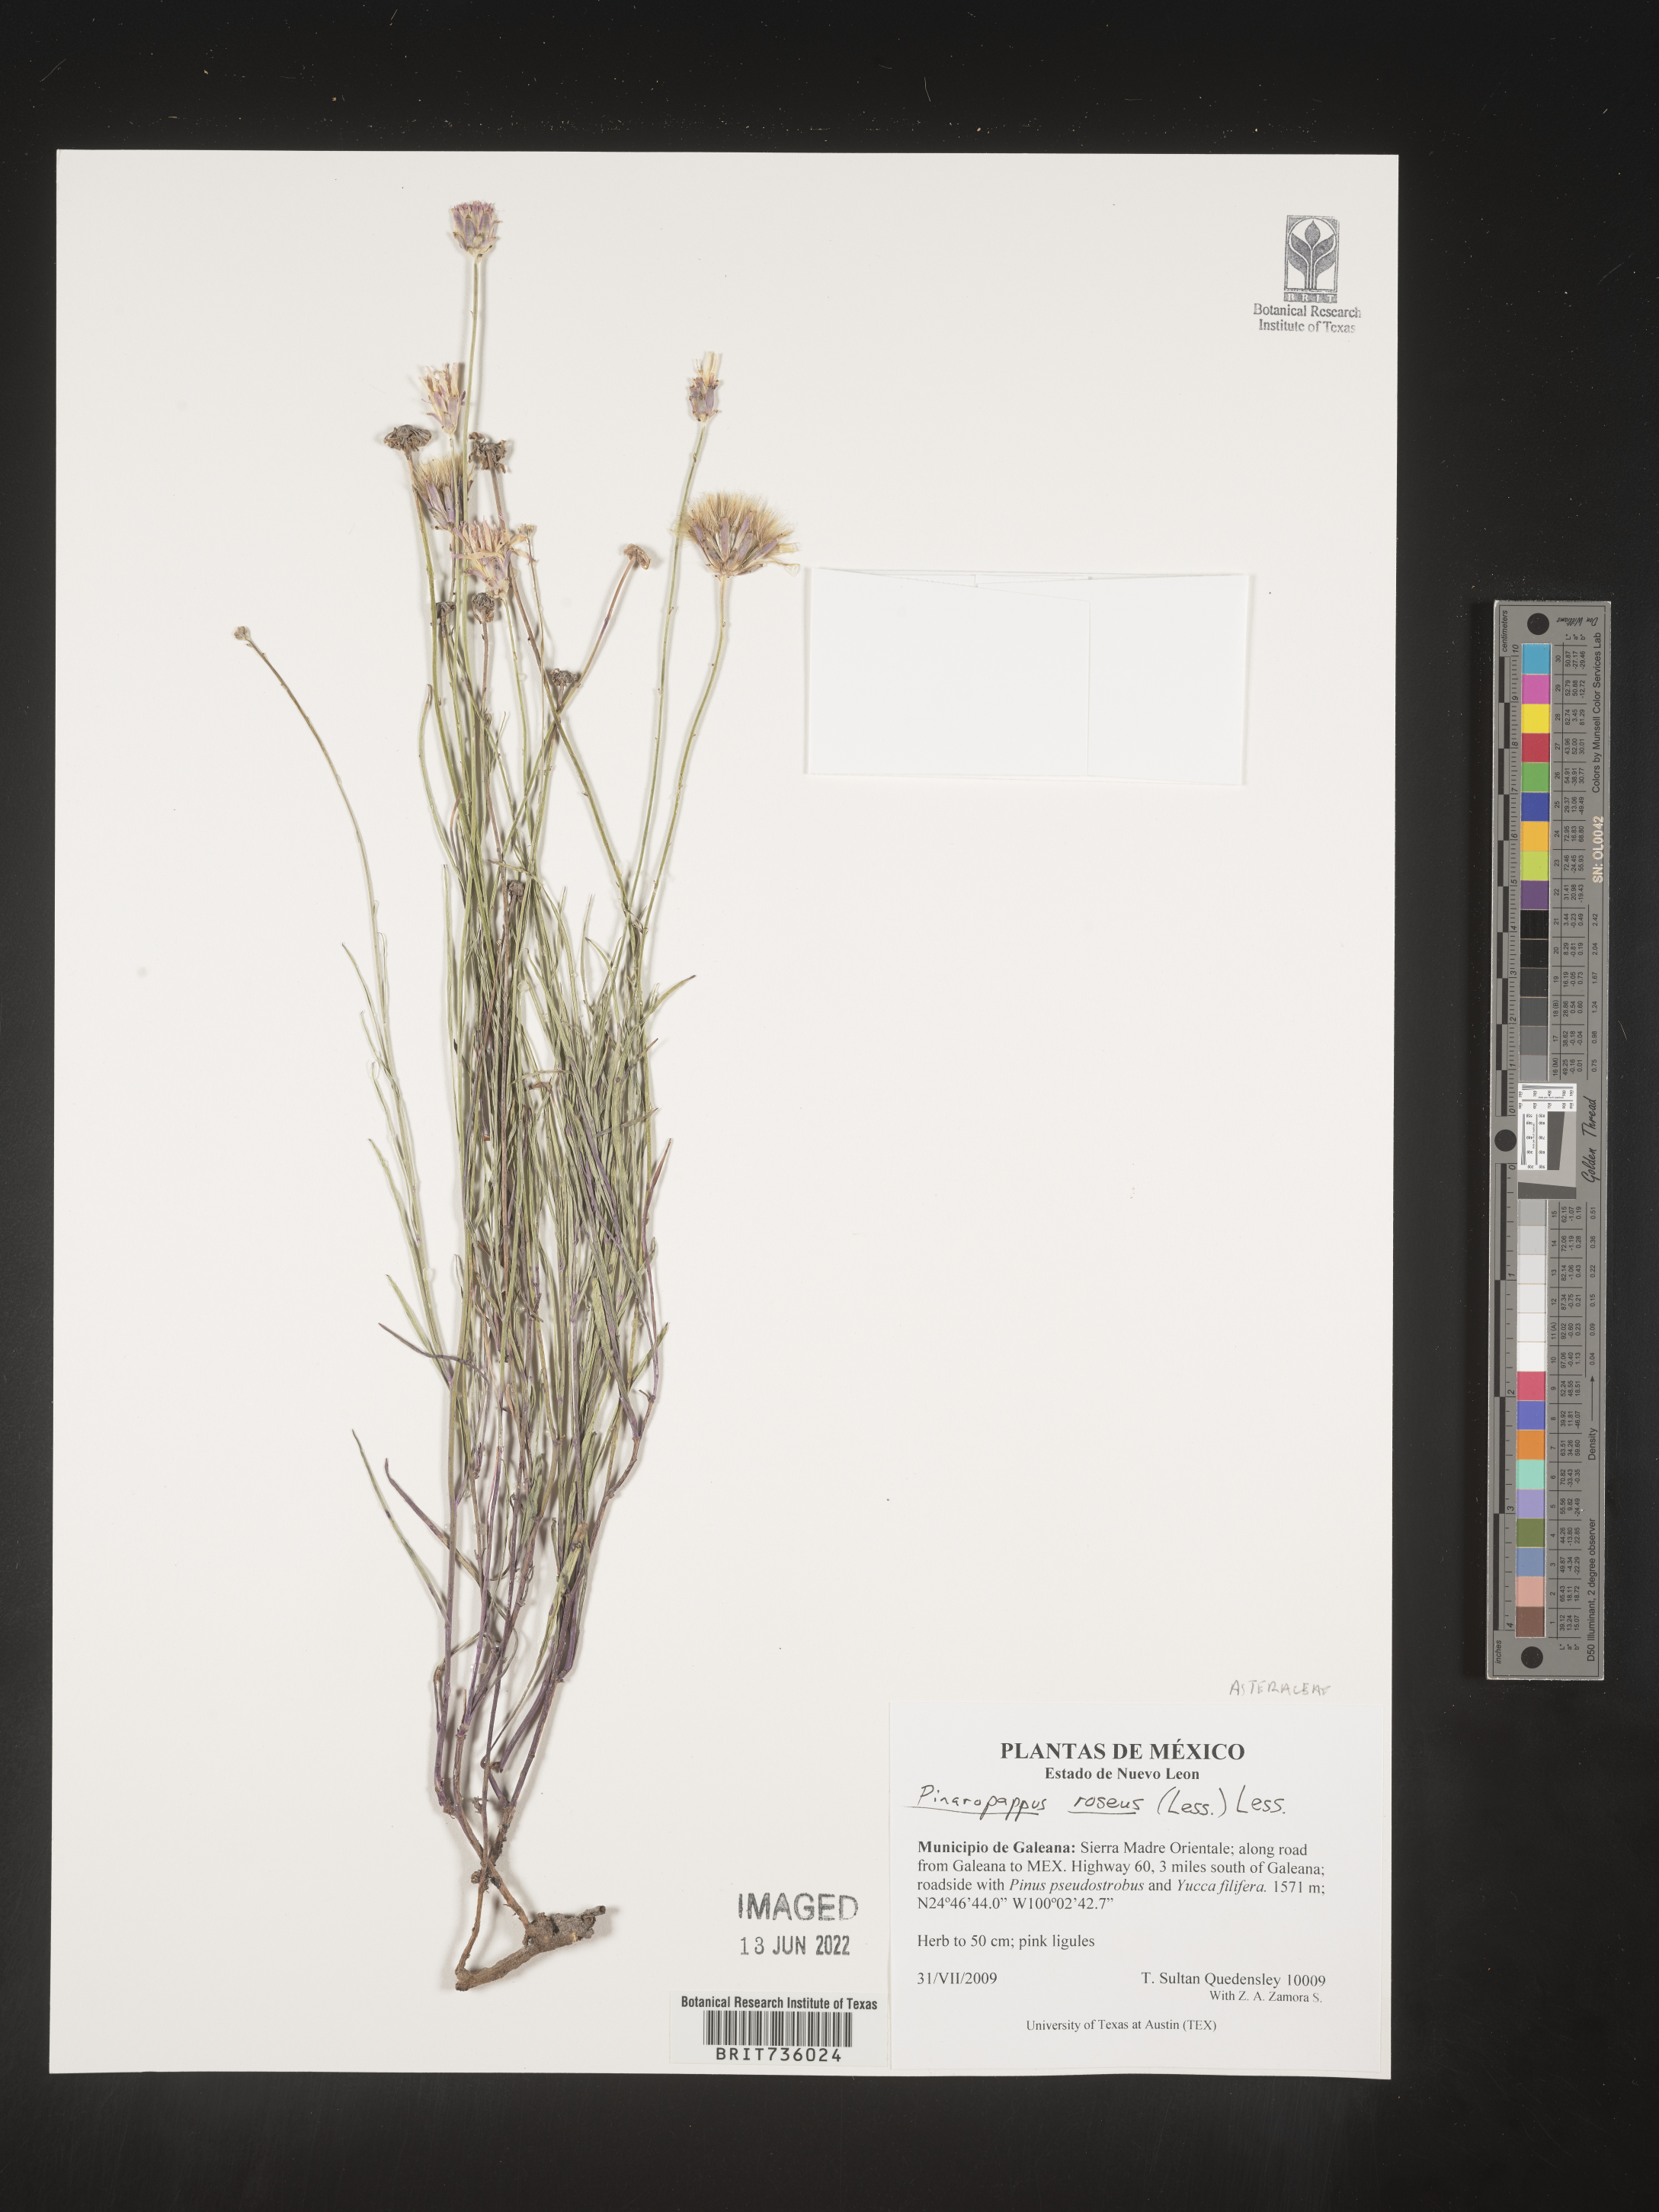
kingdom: Plantae
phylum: Tracheophyta
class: Magnoliopsida
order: Asterales
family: Asteraceae
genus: Pinaropappus
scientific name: Pinaropappus
